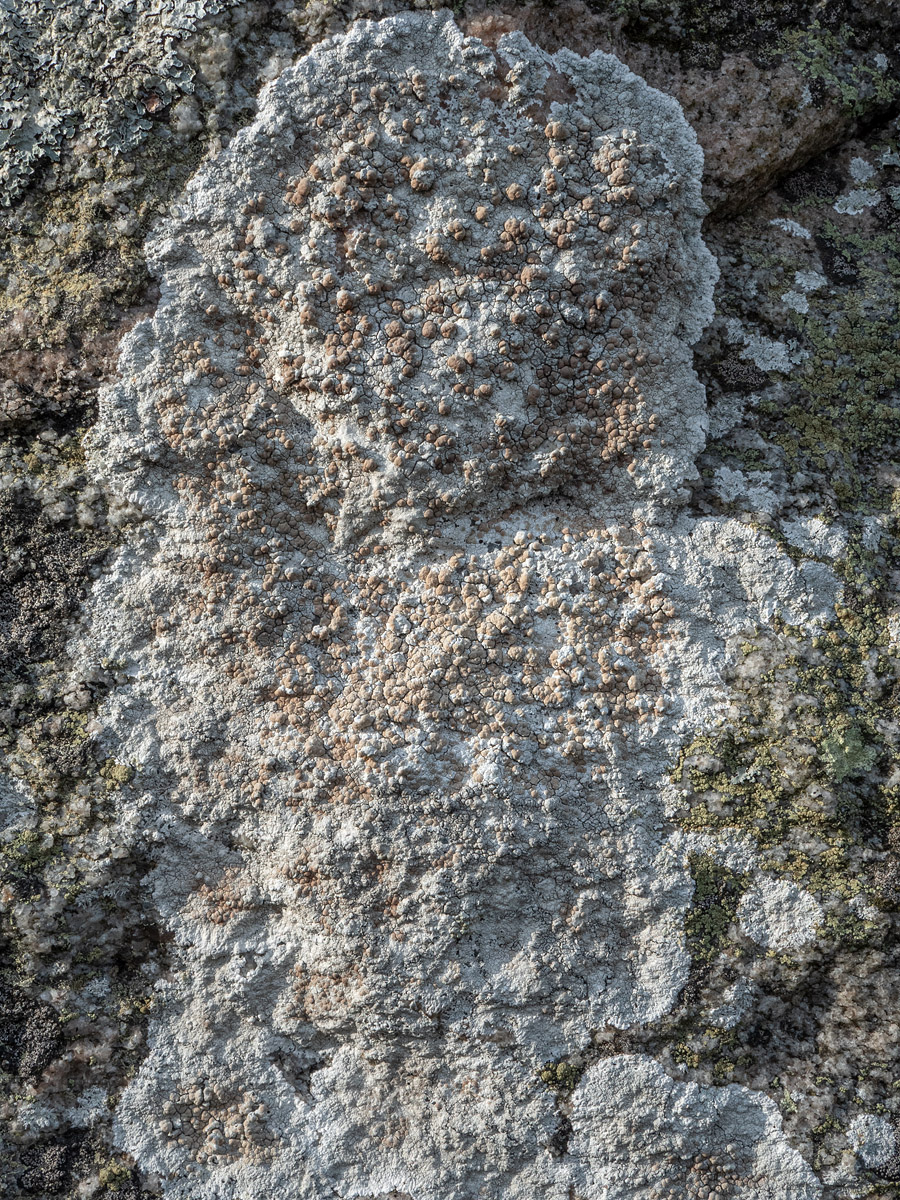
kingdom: Fungi
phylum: Ascomycota
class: Lecanoromycetes
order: Lecanorales
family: Lecanoraceae
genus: Glaucomaria
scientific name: Glaucomaria rupicola
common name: stengærde-kantskivelav
